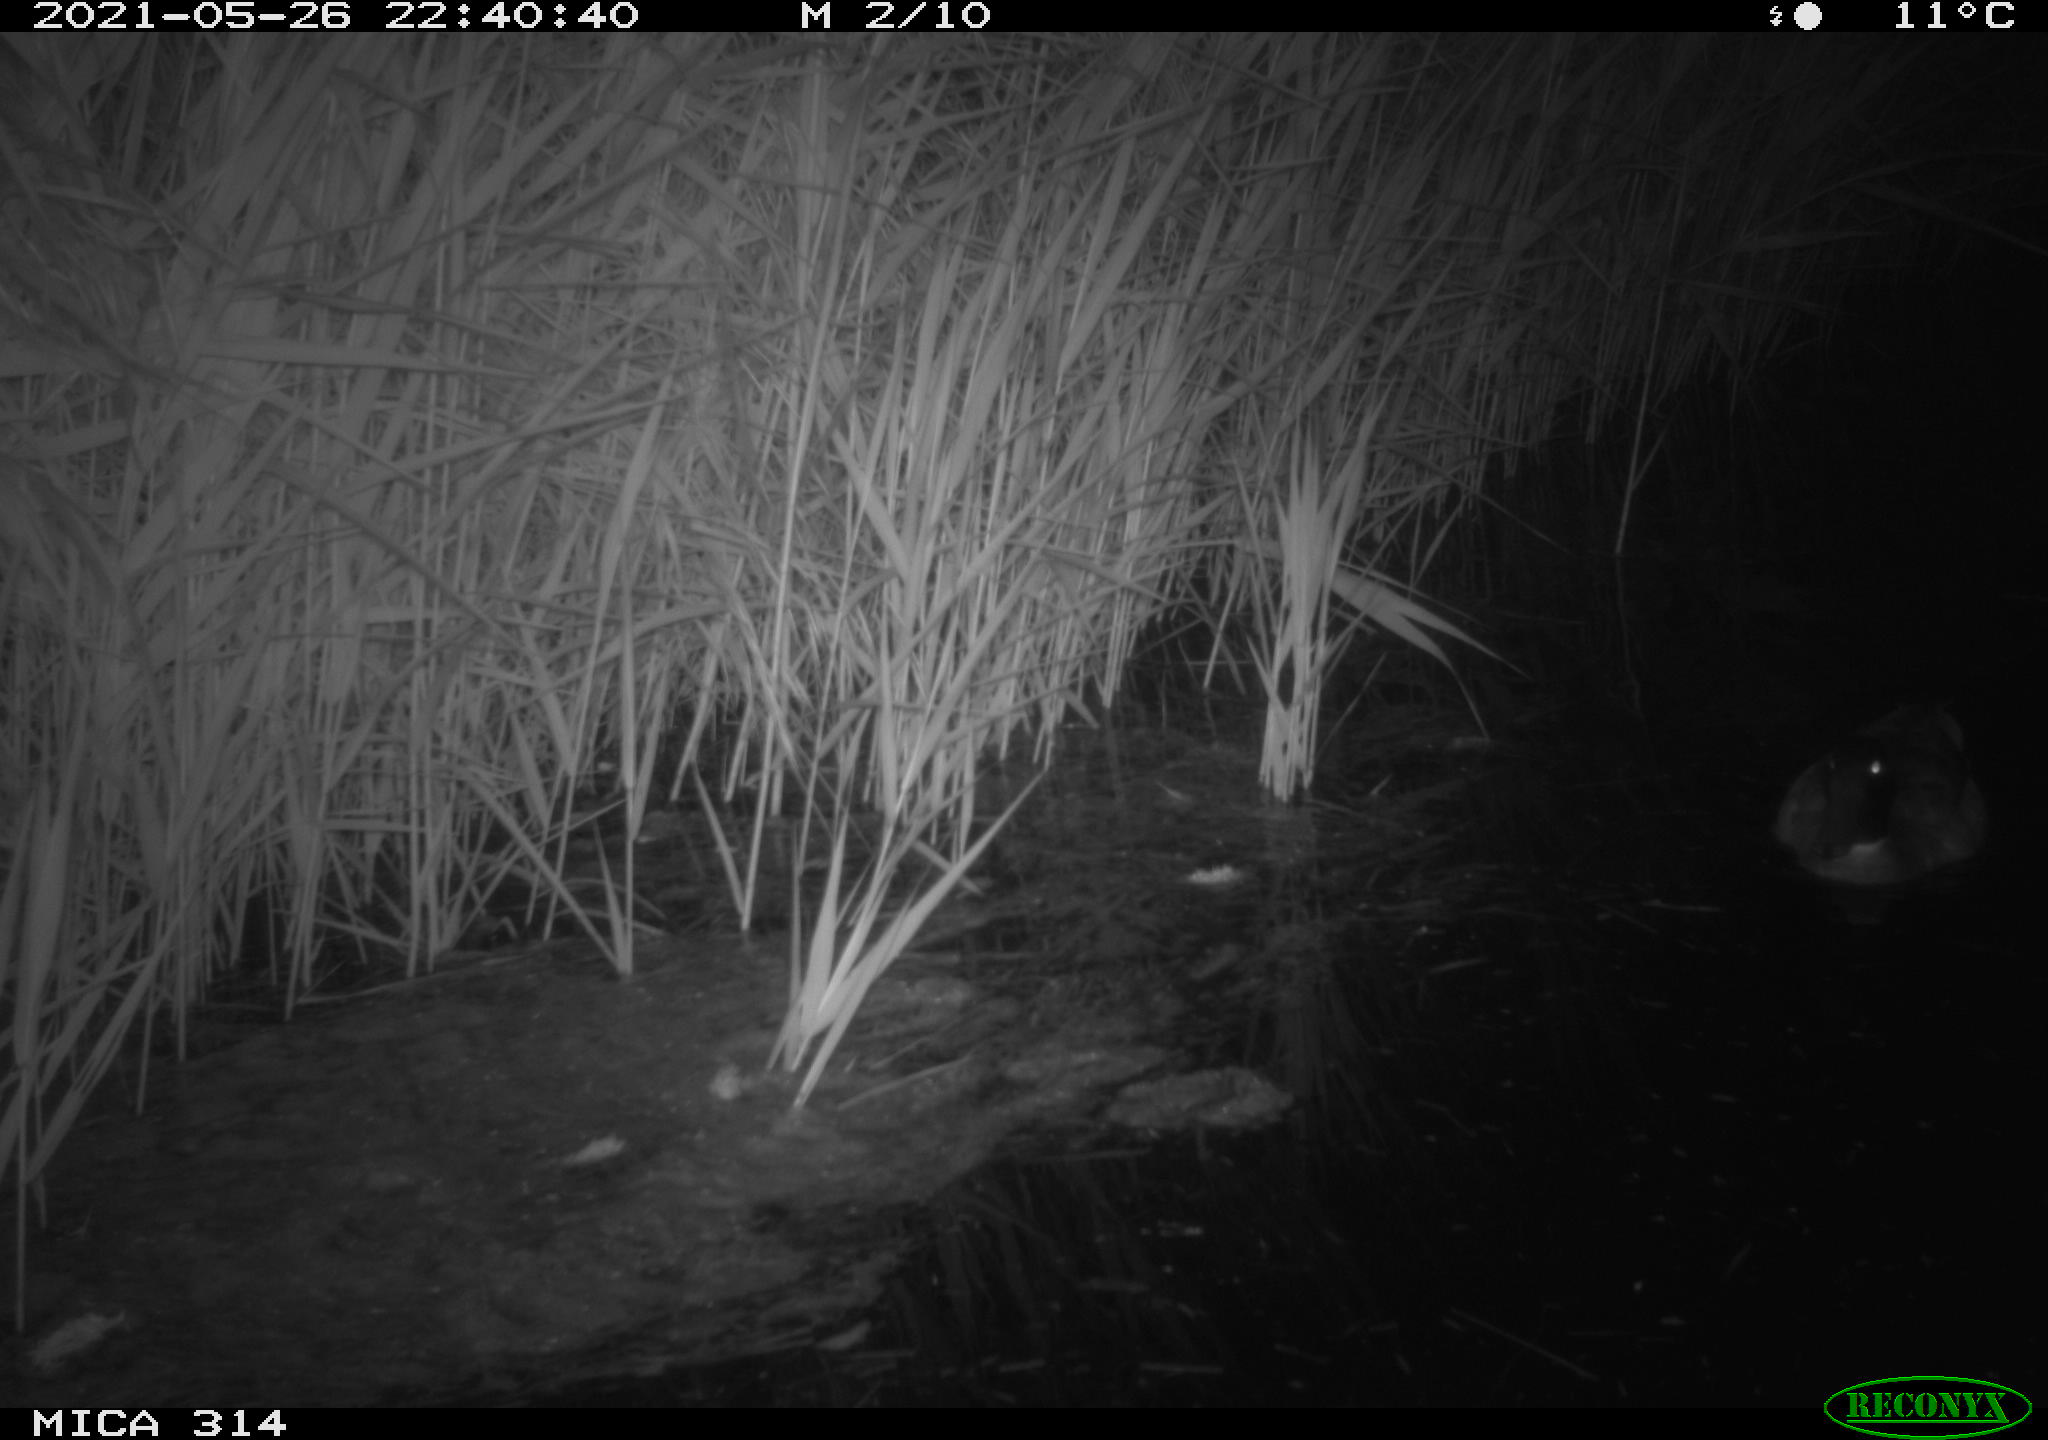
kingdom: Animalia
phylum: Chordata
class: Aves
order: Anseriformes
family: Anatidae
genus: Anas
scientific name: Anas platyrhynchos
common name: Mallard
